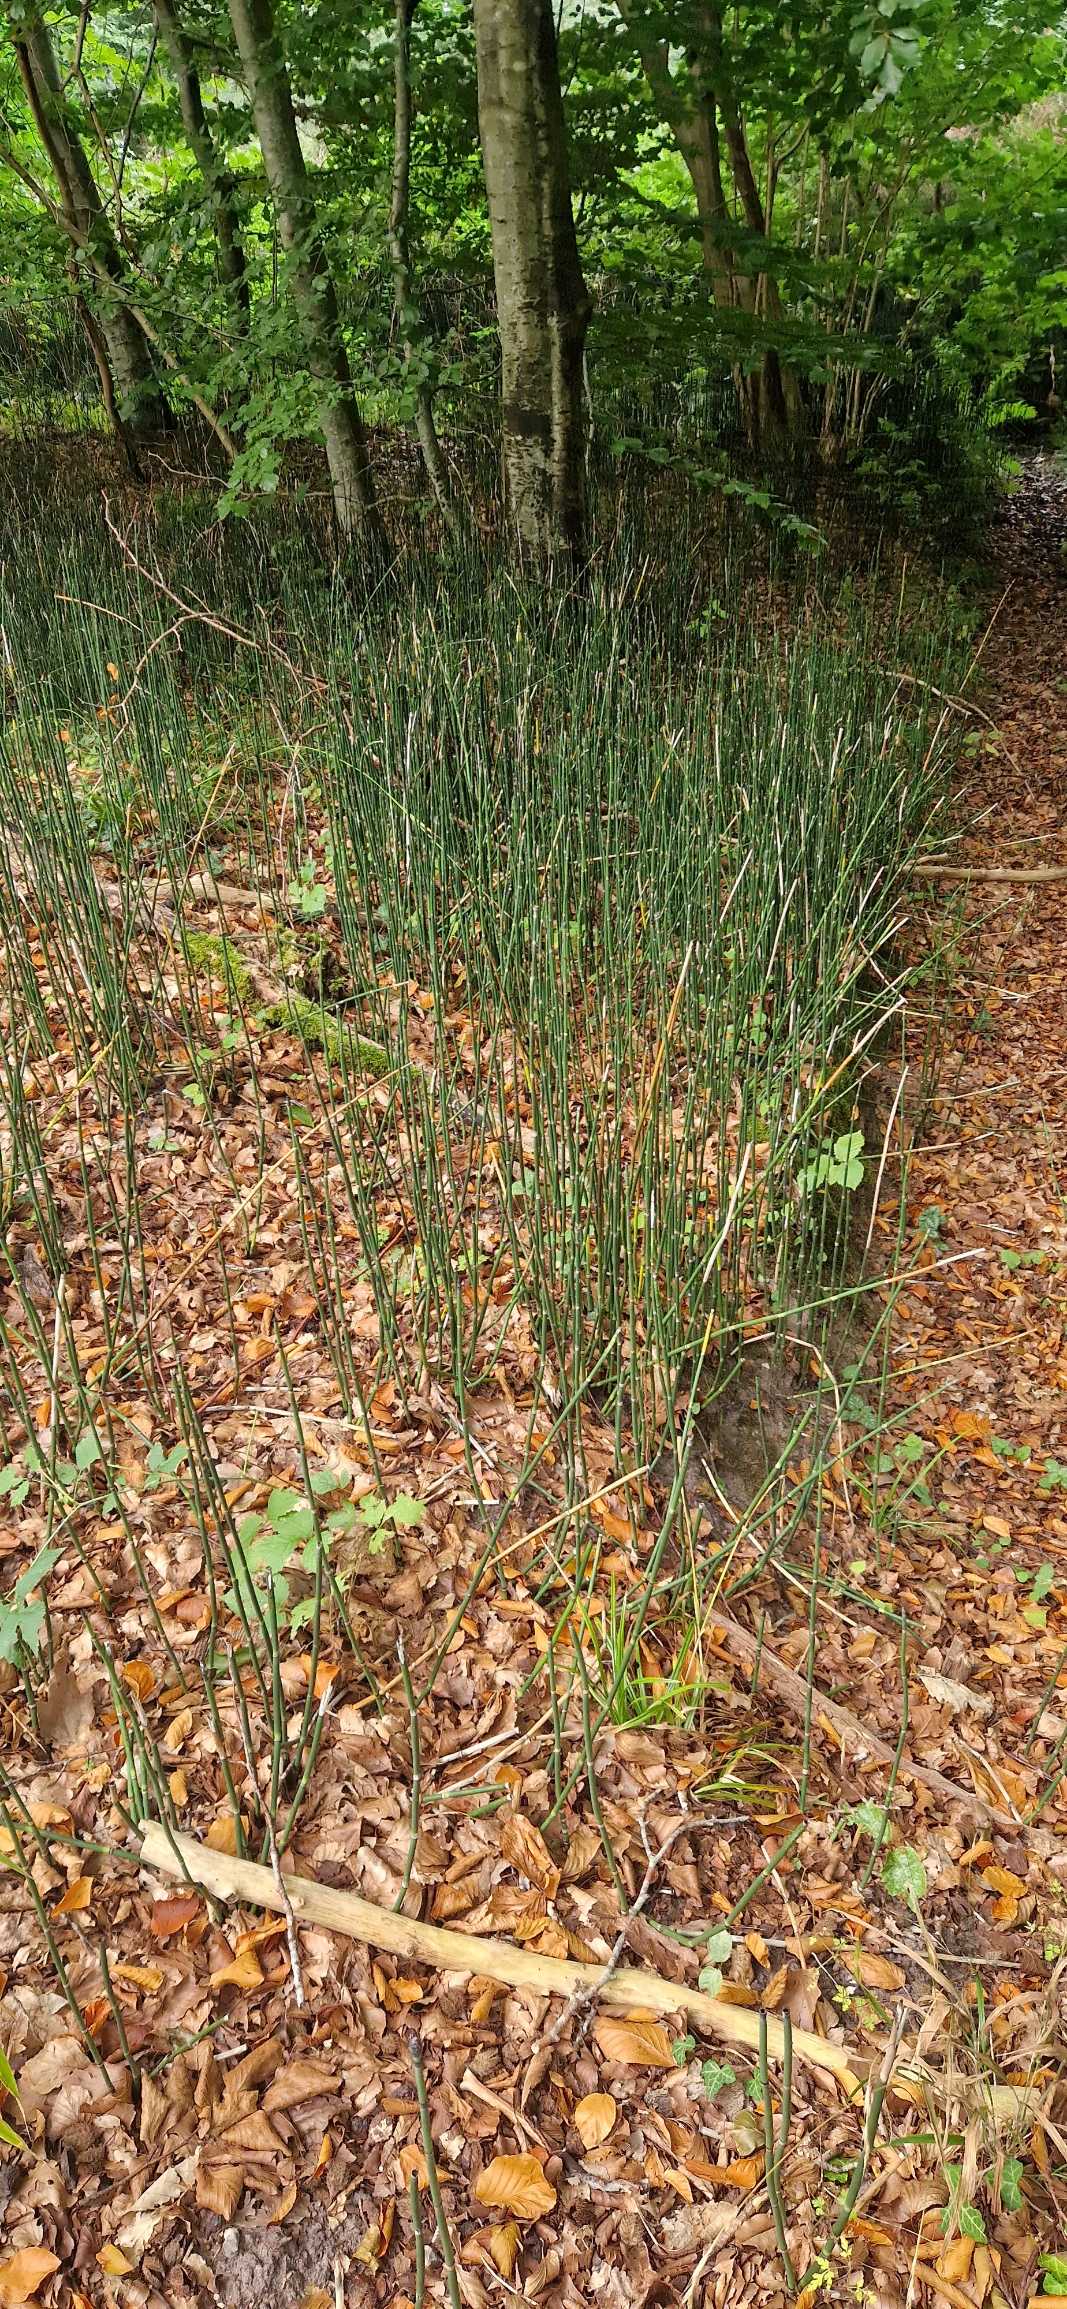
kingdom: Plantae
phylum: Tracheophyta
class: Polypodiopsida
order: Equisetales
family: Equisetaceae
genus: Equisetum
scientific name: Equisetum hyemale
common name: Skavgræs
